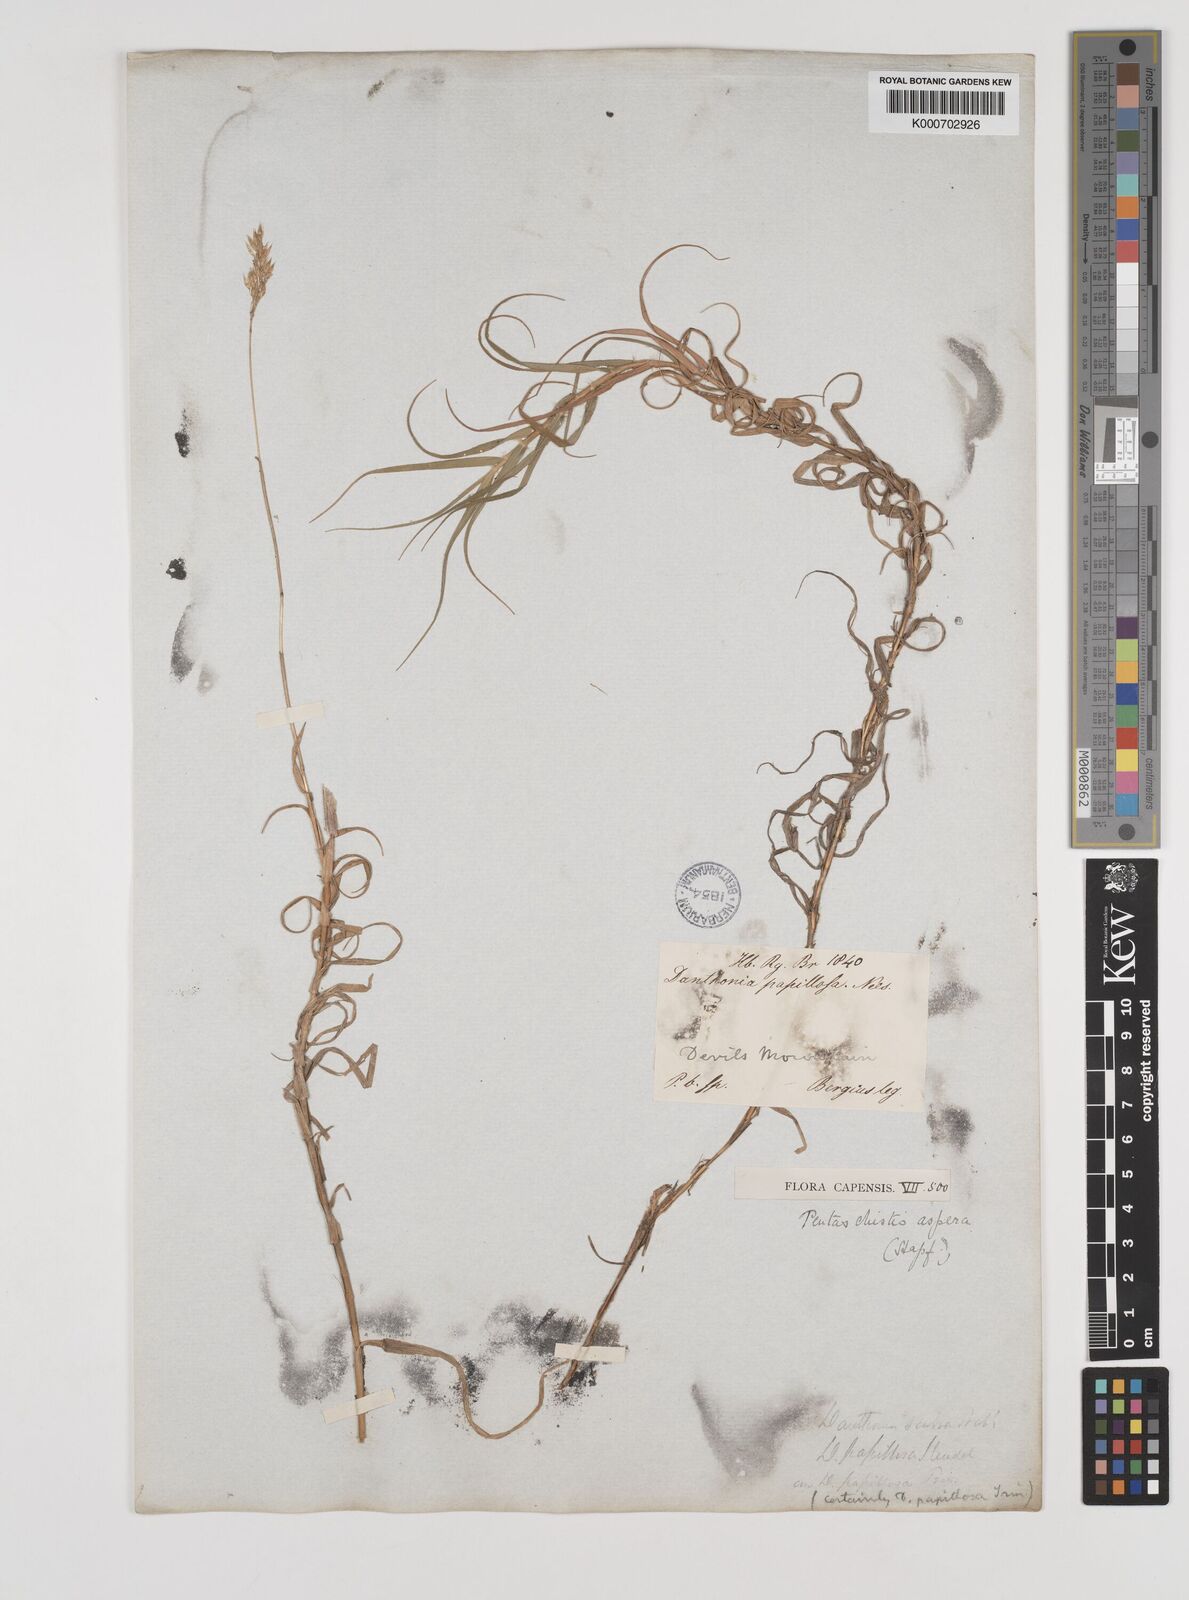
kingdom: Plantae
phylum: Tracheophyta
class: Liliopsida
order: Poales
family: Poaceae
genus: Pentameris
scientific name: Pentameris aspera
